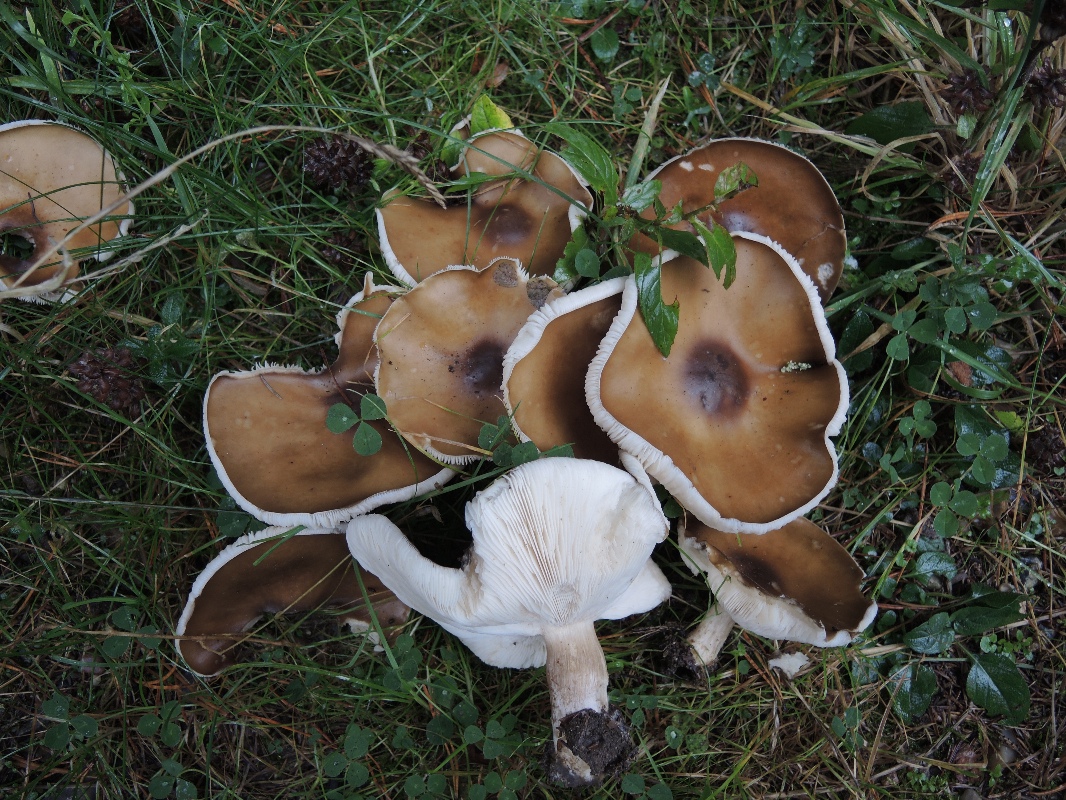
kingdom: Fungi
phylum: Basidiomycota
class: Agaricomycetes
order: Agaricales
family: Tricholomataceae
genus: Melanoleuca
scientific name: Melanoleuca
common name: munkehat
